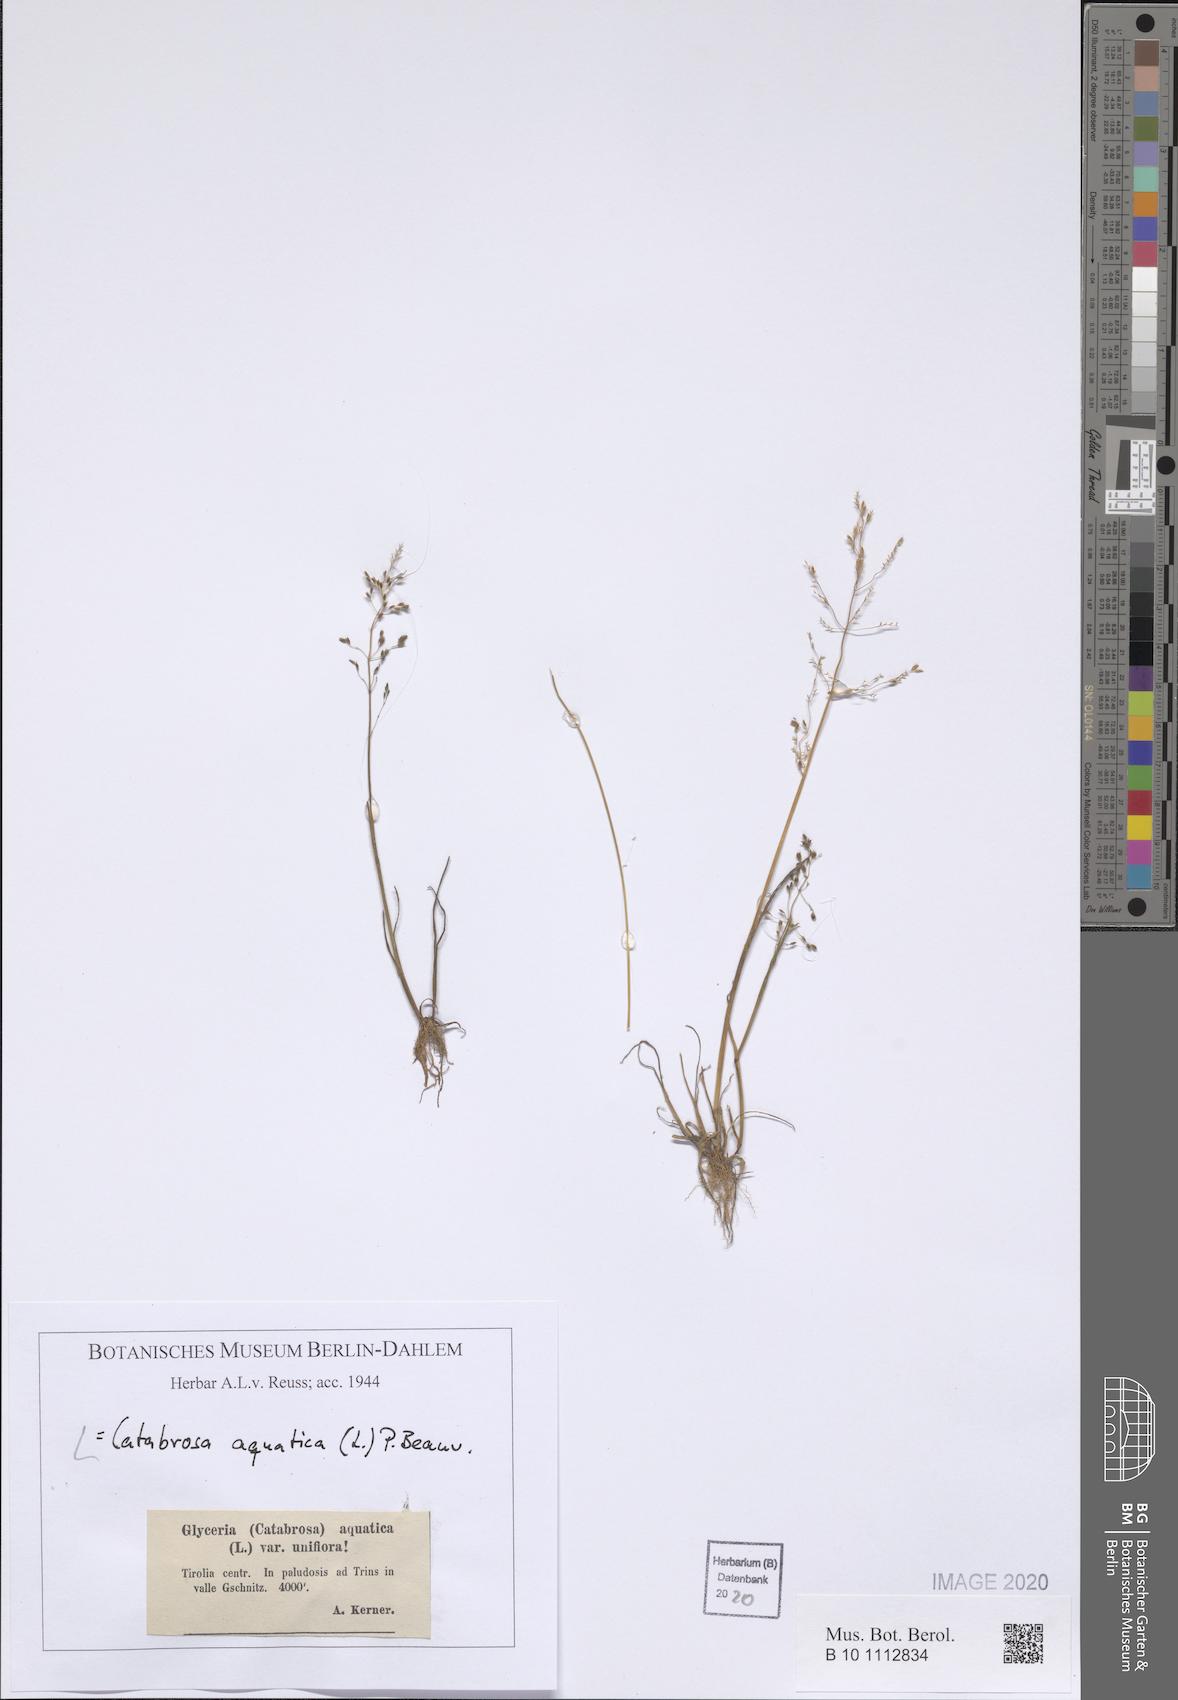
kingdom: Plantae
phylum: Tracheophyta
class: Liliopsida
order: Poales
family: Poaceae
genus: Catabrosa
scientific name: Catabrosa aquatica
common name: Whorl-grass
